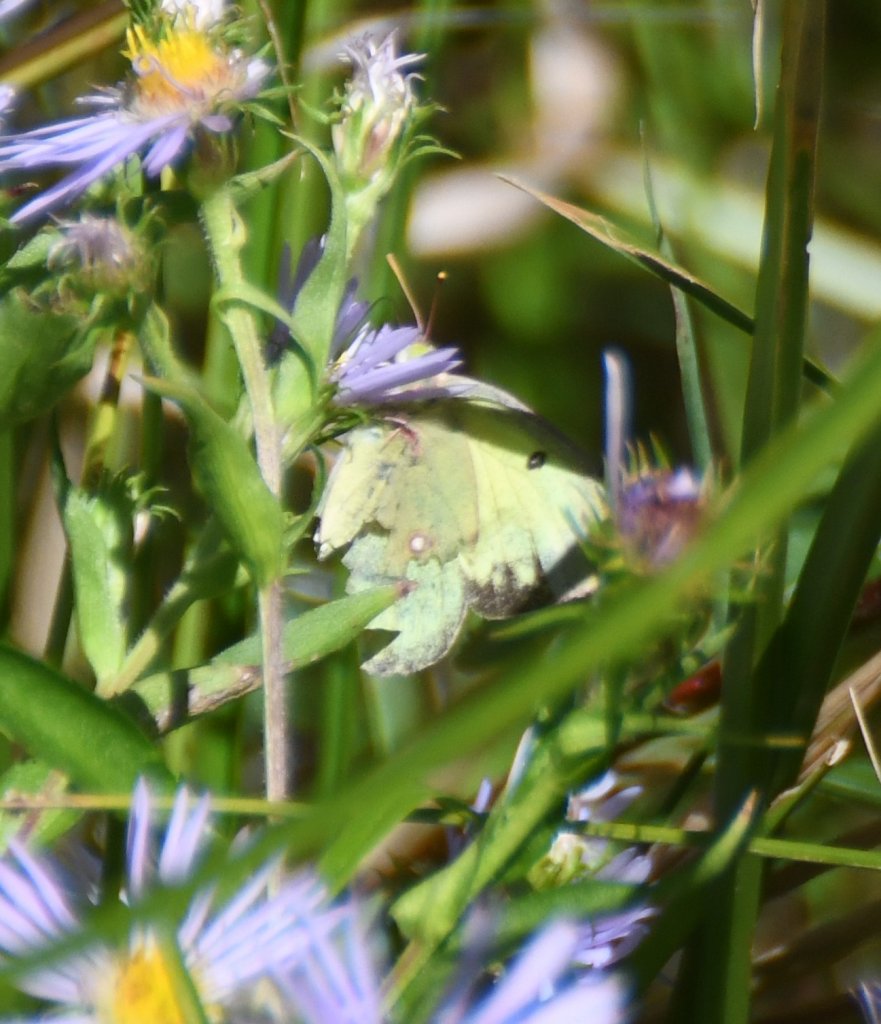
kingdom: Animalia
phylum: Arthropoda
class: Insecta
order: Lepidoptera
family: Pieridae
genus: Colias
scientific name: Colias
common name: Clouded Yellows
